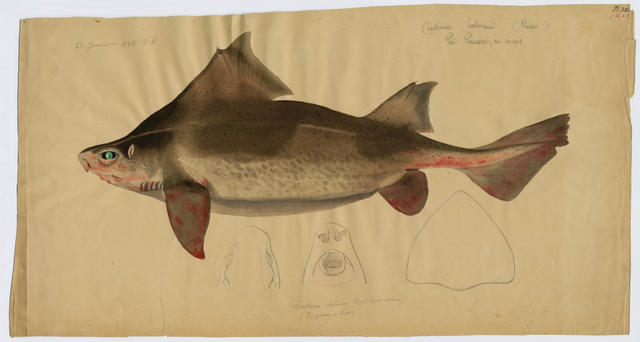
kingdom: Animalia
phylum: Chordata
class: Elasmobranchii
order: Squaliformes
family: Oxynotidae
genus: Oxynotus
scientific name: Oxynotus centrina
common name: Angular roughshark
